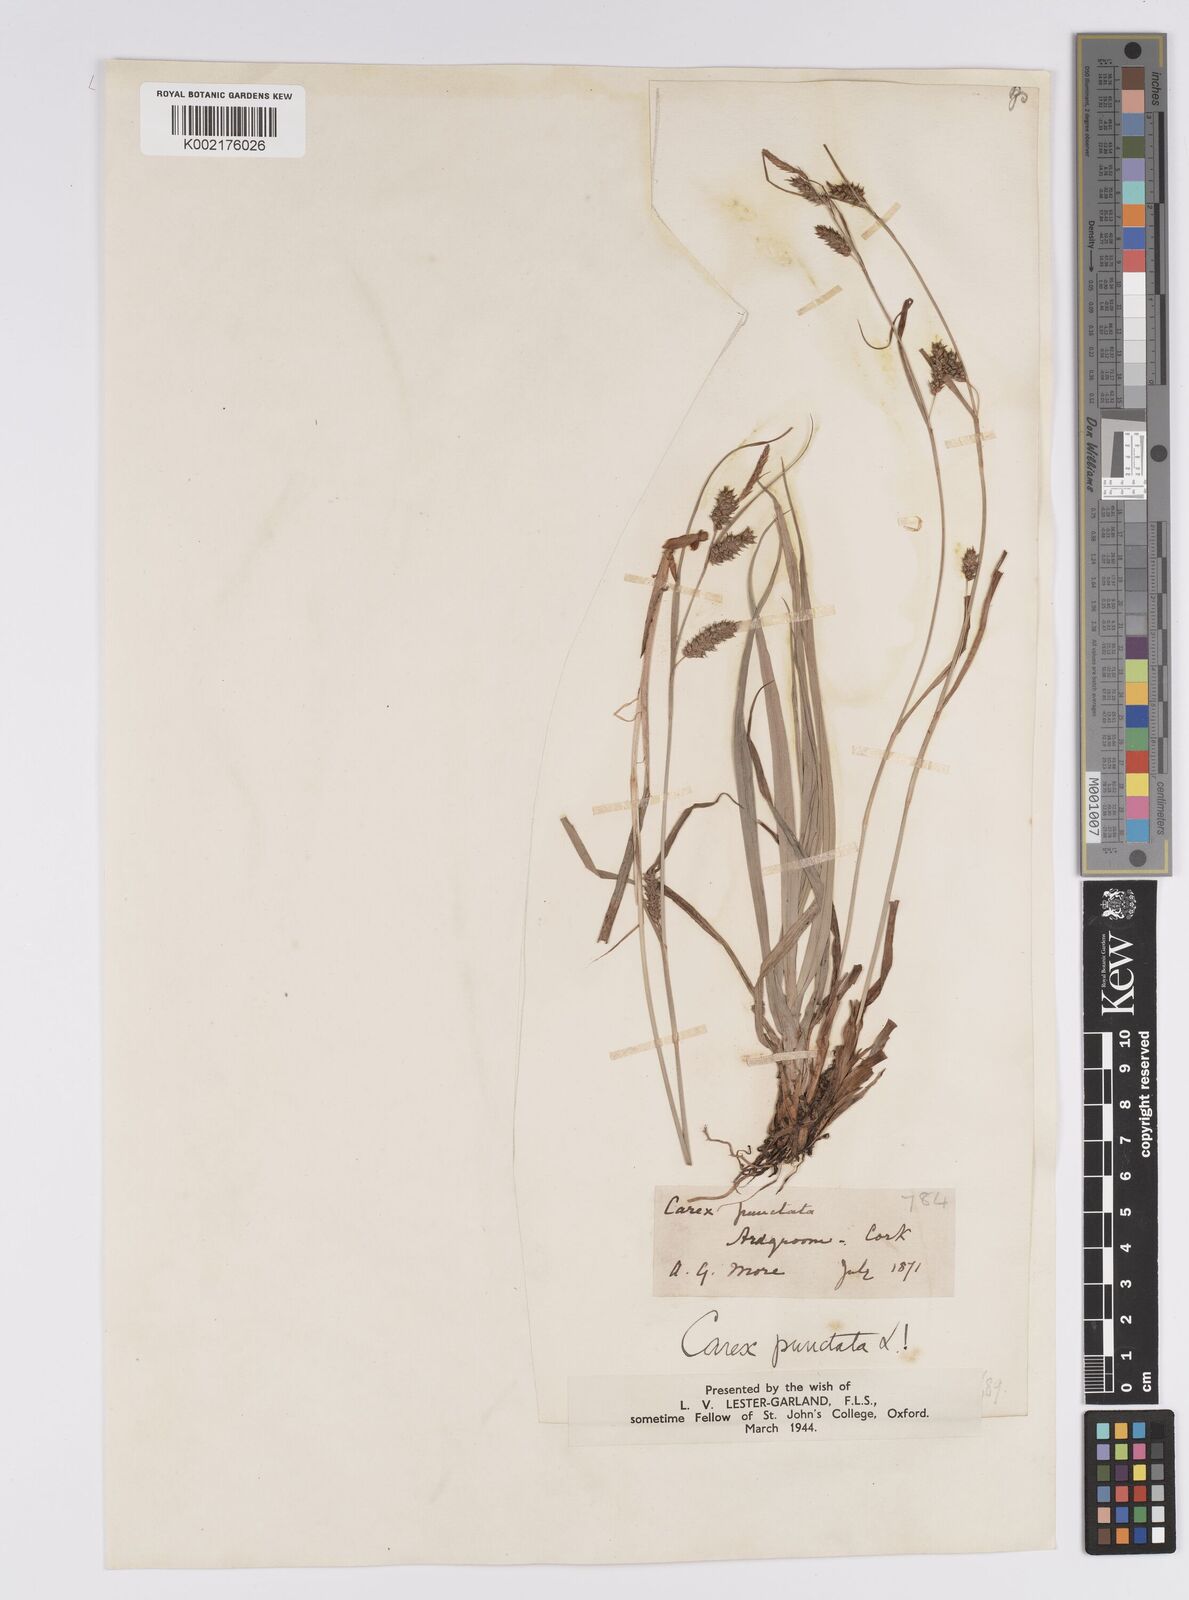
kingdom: Plantae
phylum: Tracheophyta
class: Liliopsida
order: Poales
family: Cyperaceae
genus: Carex
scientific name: Carex punctata
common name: Dotted sedge
